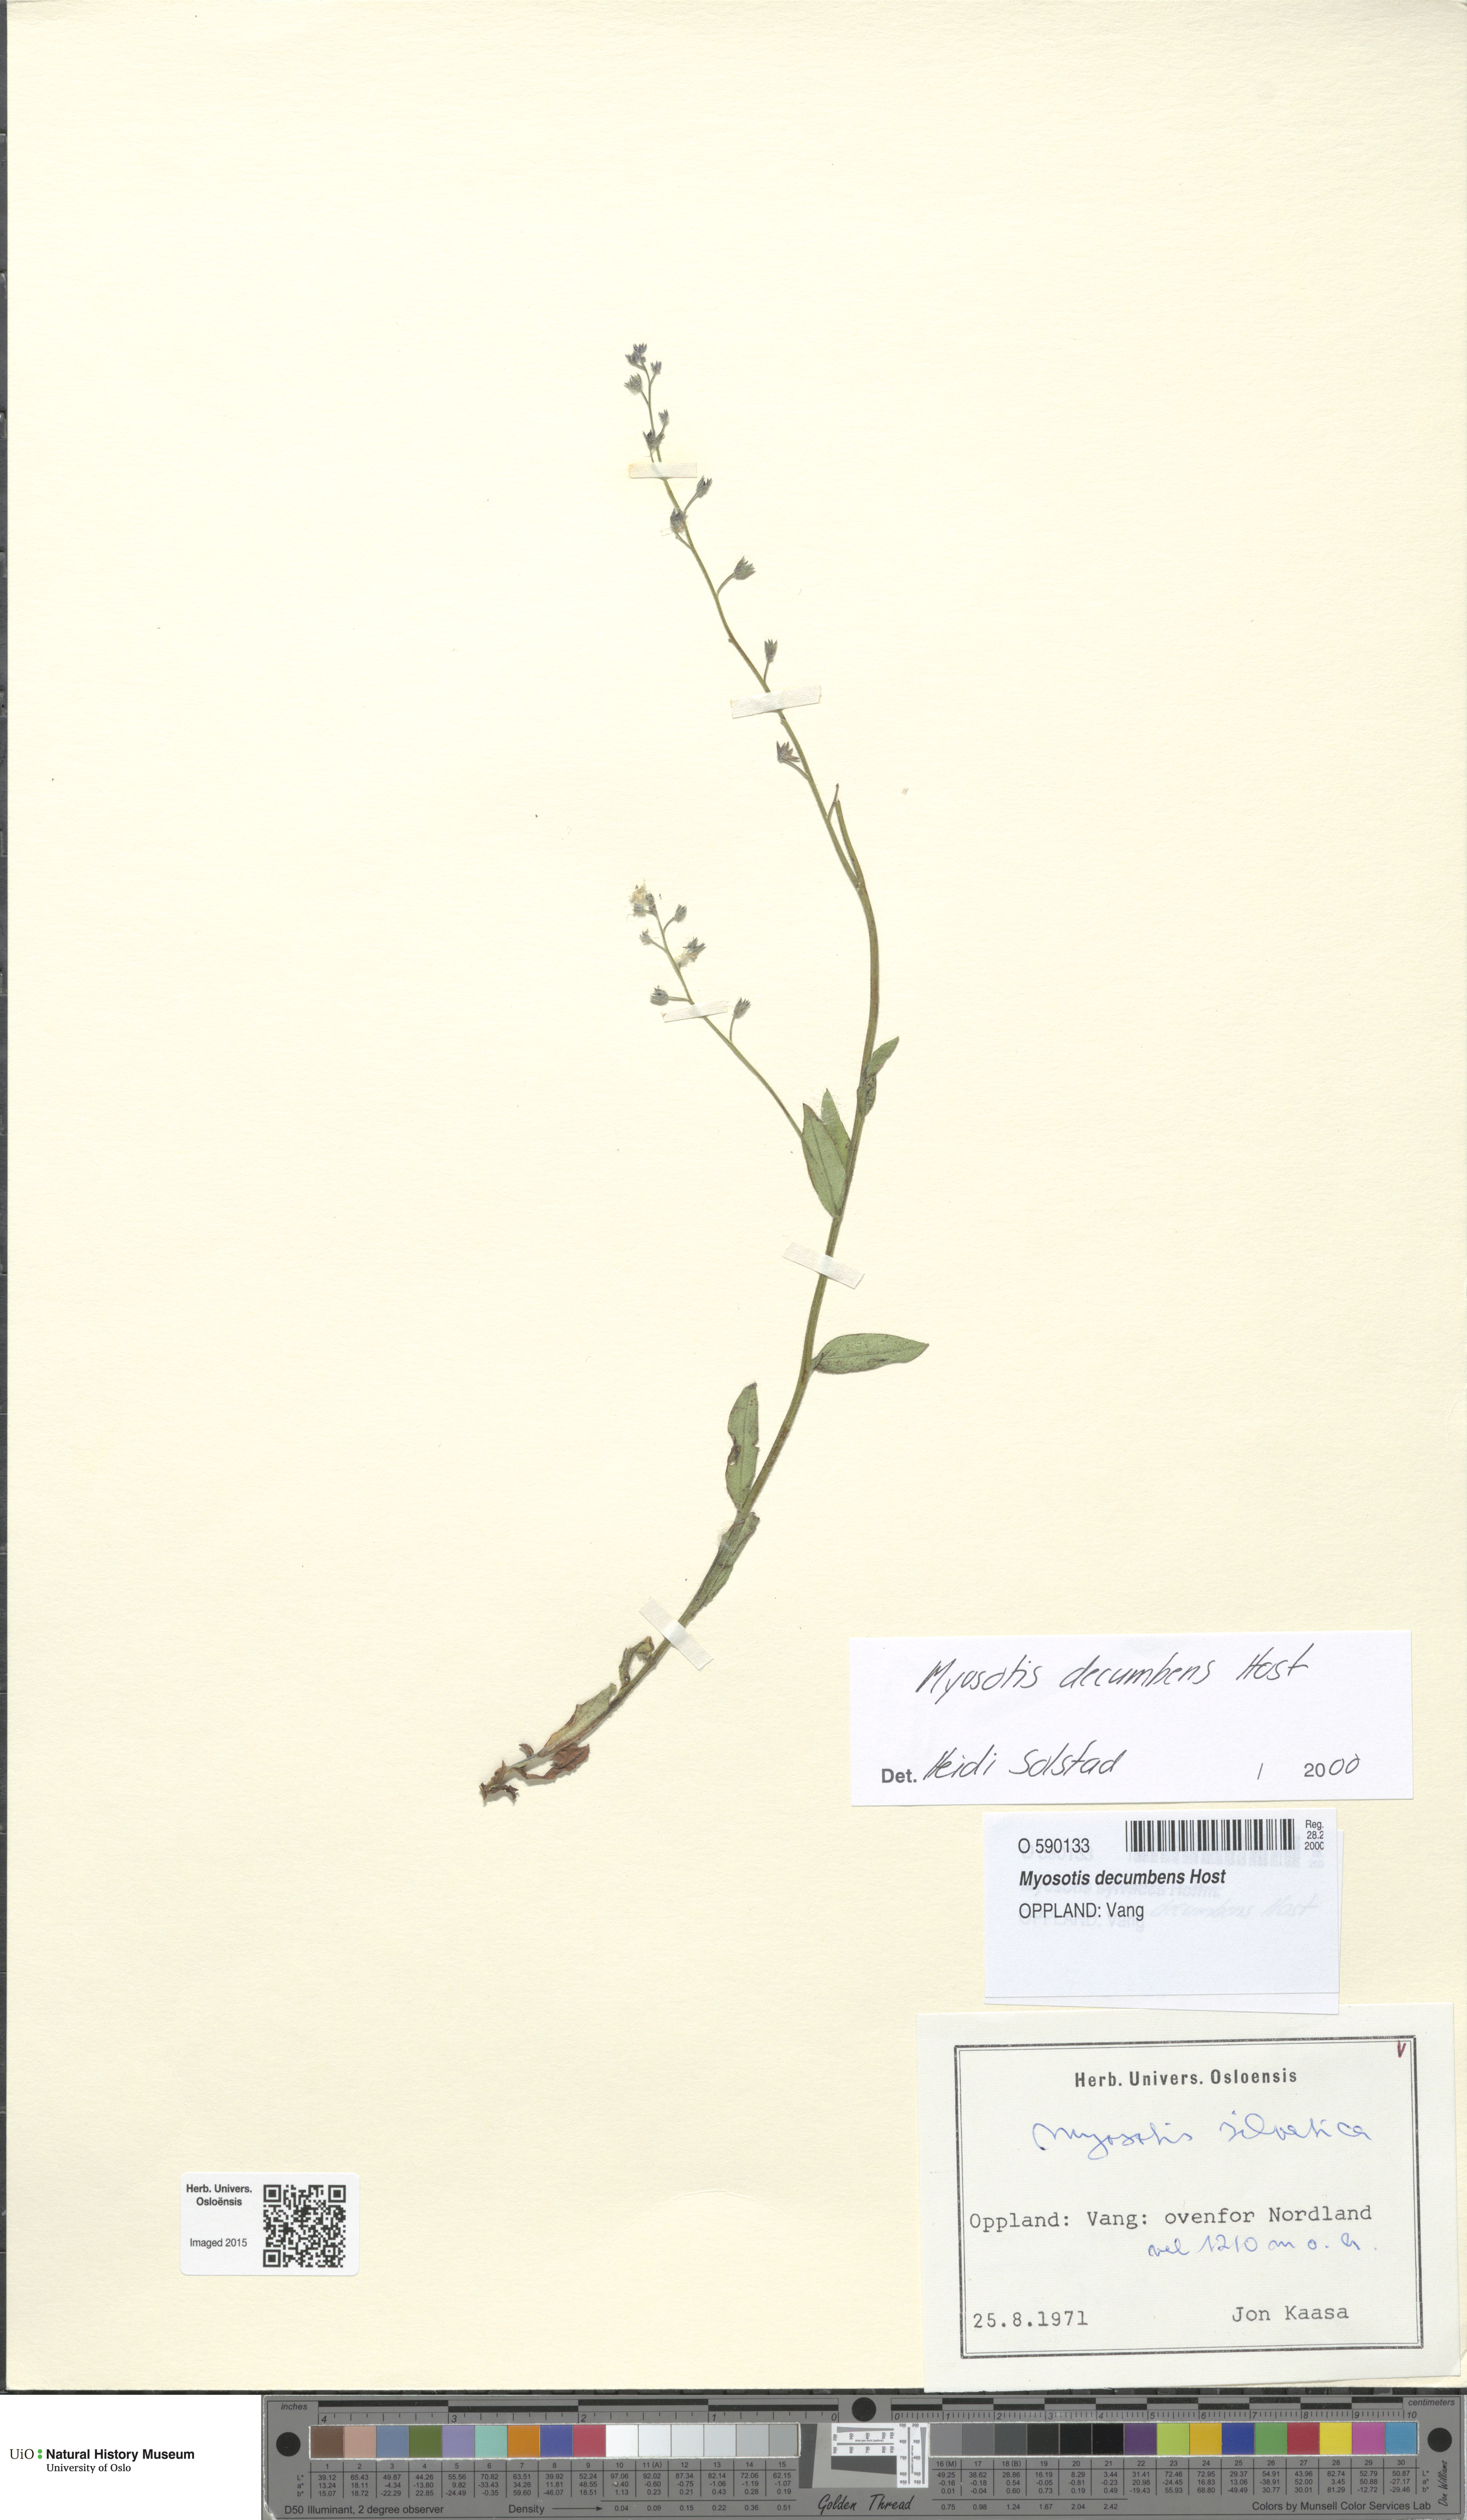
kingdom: Plantae
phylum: Tracheophyta
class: Magnoliopsida
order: Boraginales
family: Boraginaceae
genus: Myosotis
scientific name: Myosotis decumbens
